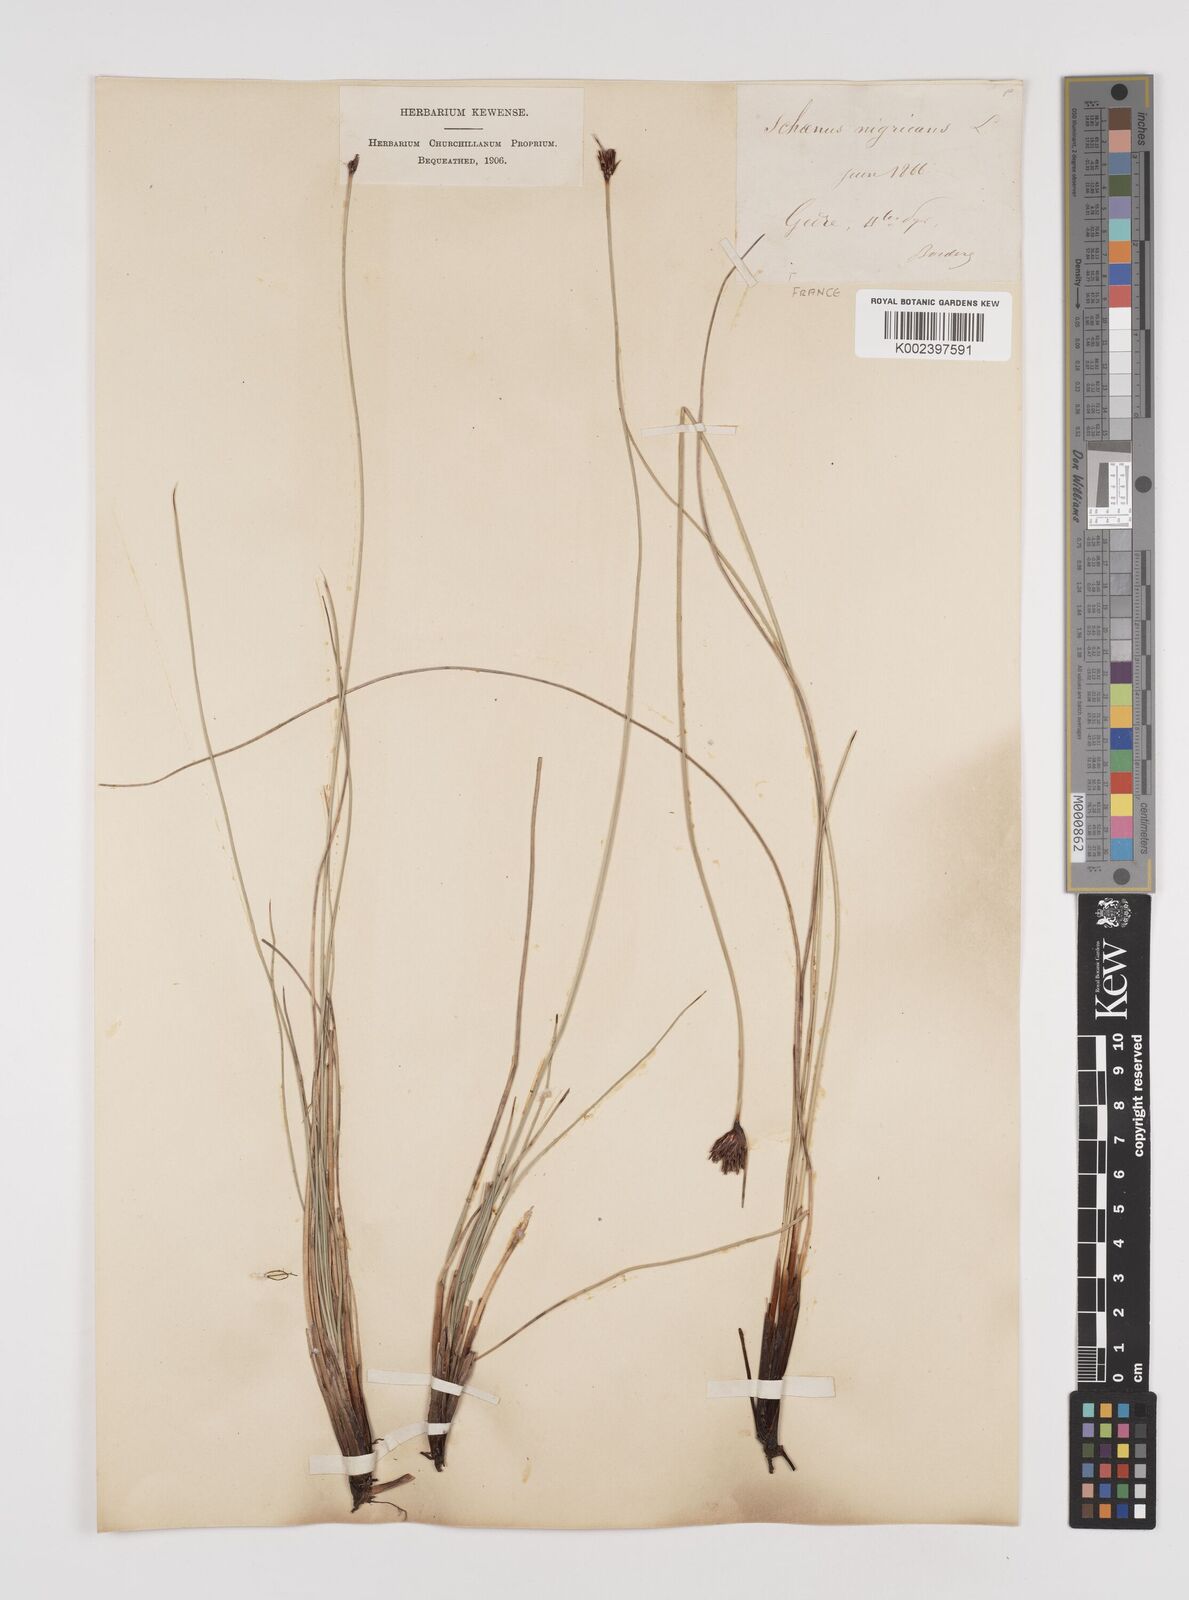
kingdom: Plantae
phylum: Tracheophyta
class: Liliopsida
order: Poales
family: Cyperaceae
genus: Schoenus
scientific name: Schoenus nigricans
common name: Black bog-rush
